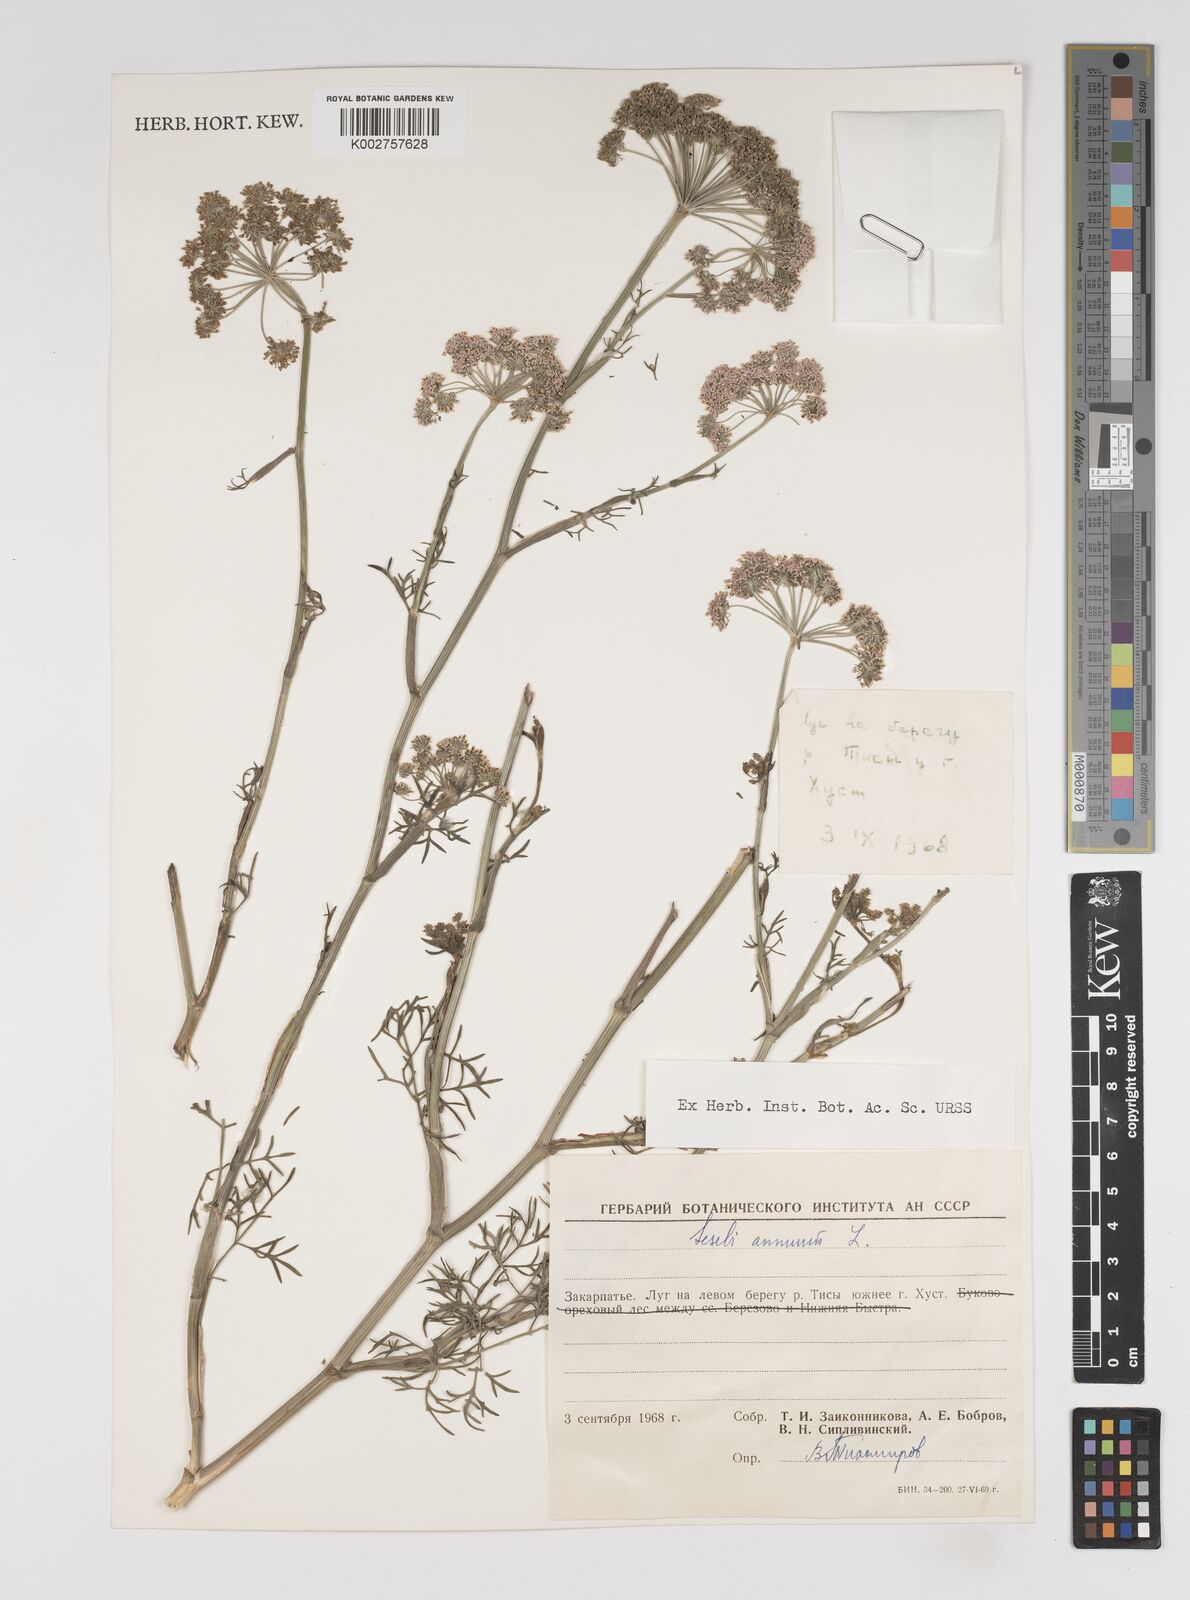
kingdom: Plantae
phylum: Tracheophyta
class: Magnoliopsida
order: Apiales
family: Apiaceae
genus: Seseli
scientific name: Seseli annuum
